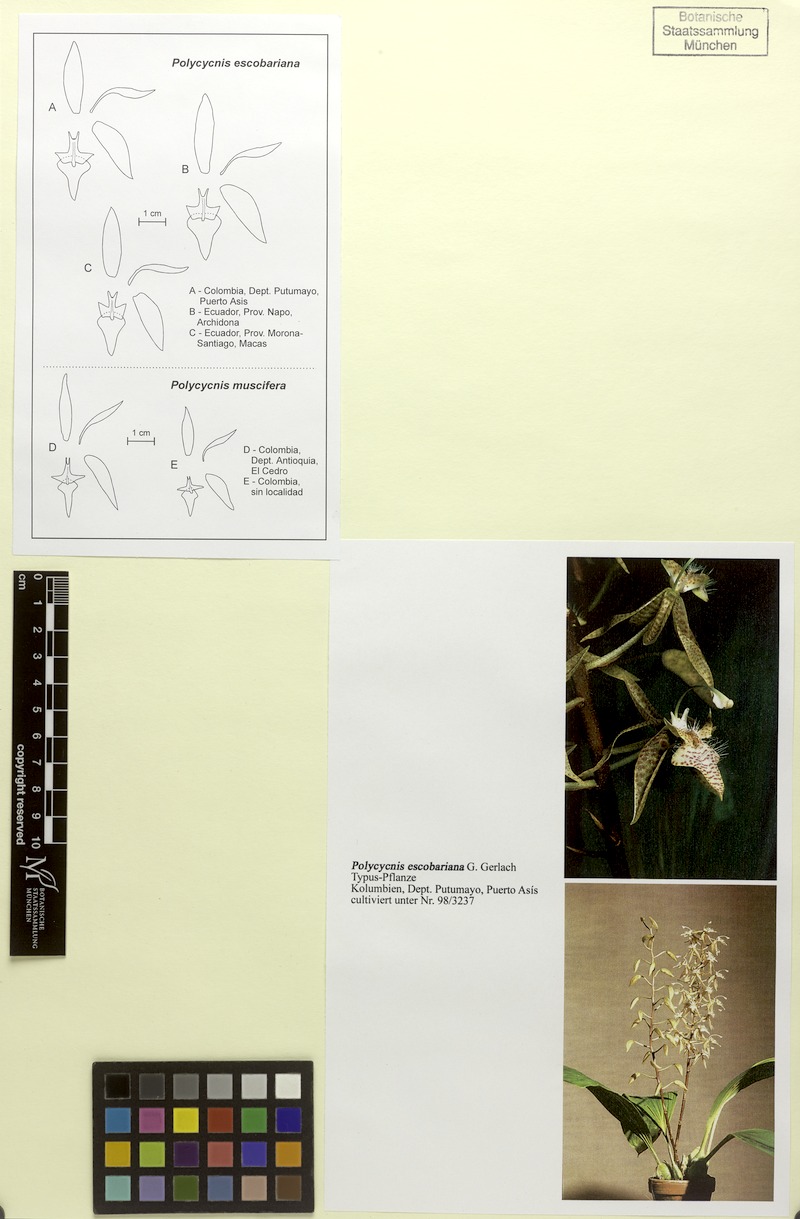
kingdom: Plantae
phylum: Tracheophyta
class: Liliopsida
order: Asparagales
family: Orchidaceae
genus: Polycycnis
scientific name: Polycycnis escobariana
